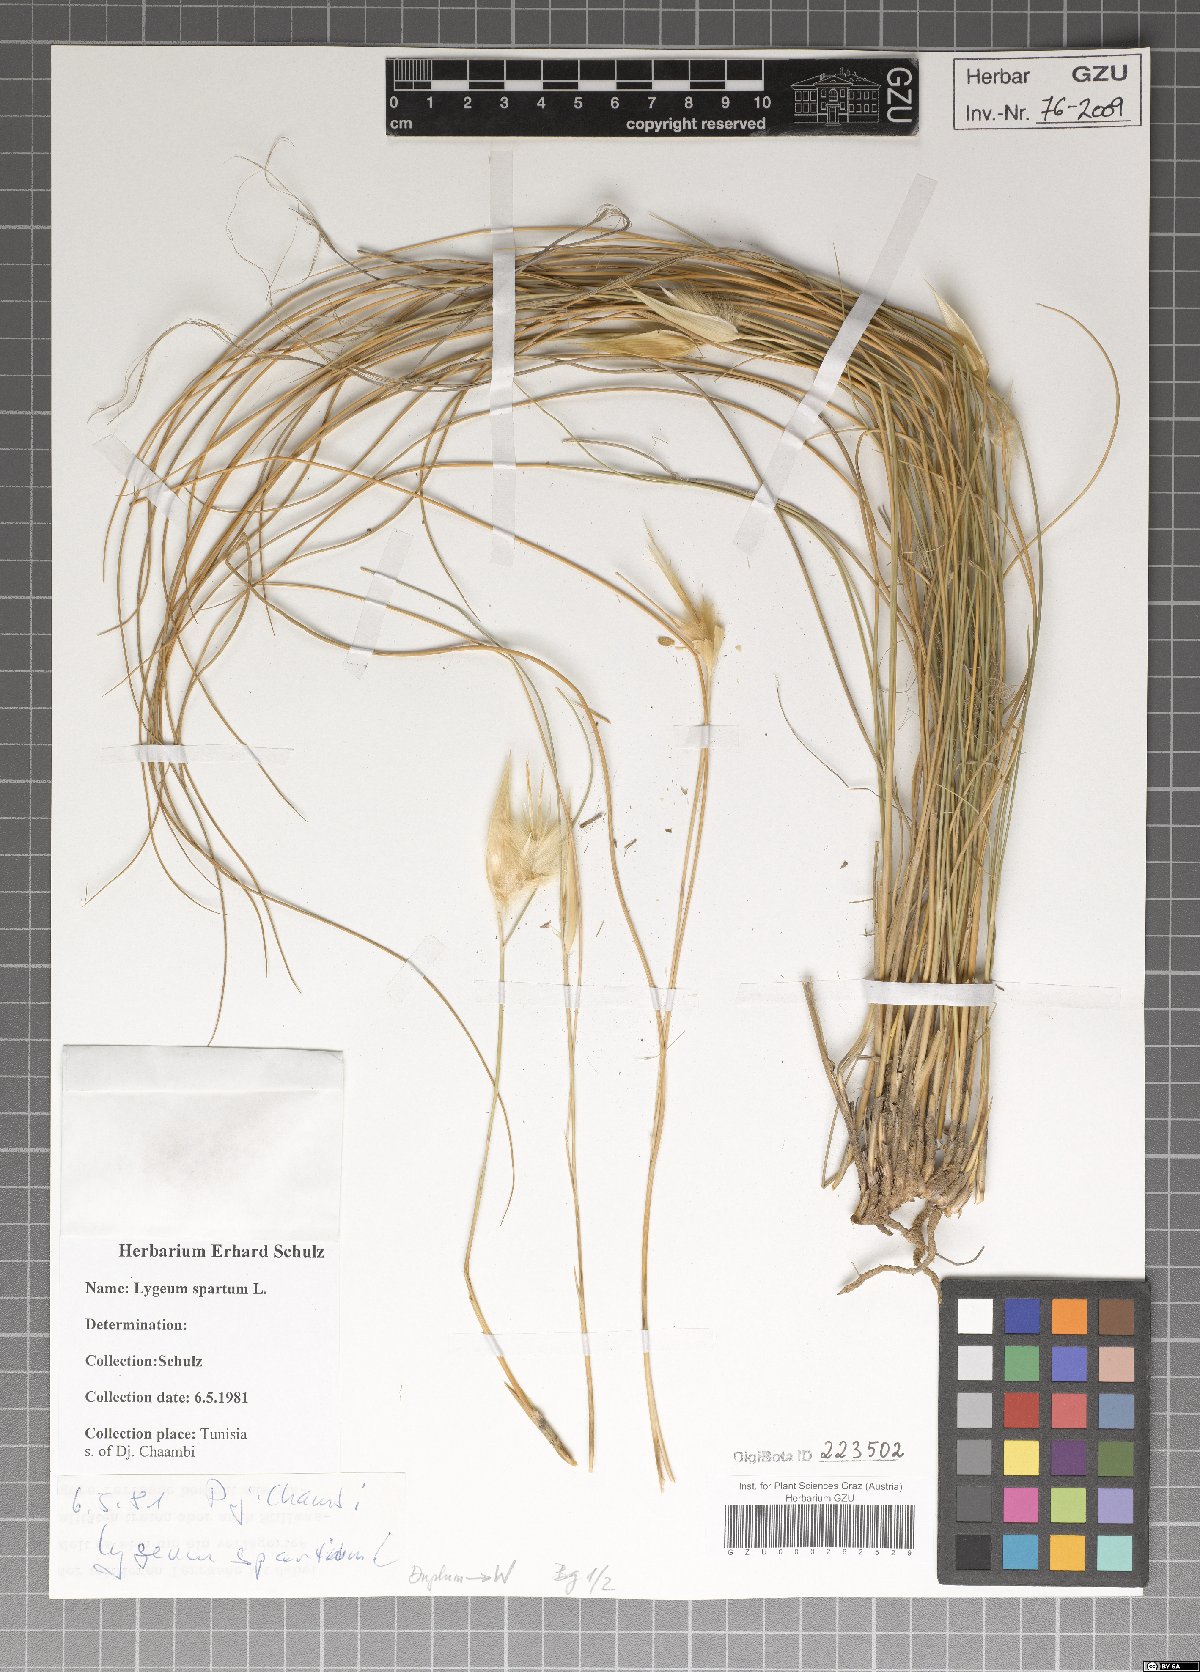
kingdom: Plantae
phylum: Tracheophyta
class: Liliopsida
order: Poales
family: Poaceae
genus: Lygeum
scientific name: Lygeum spartum
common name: Albardine
